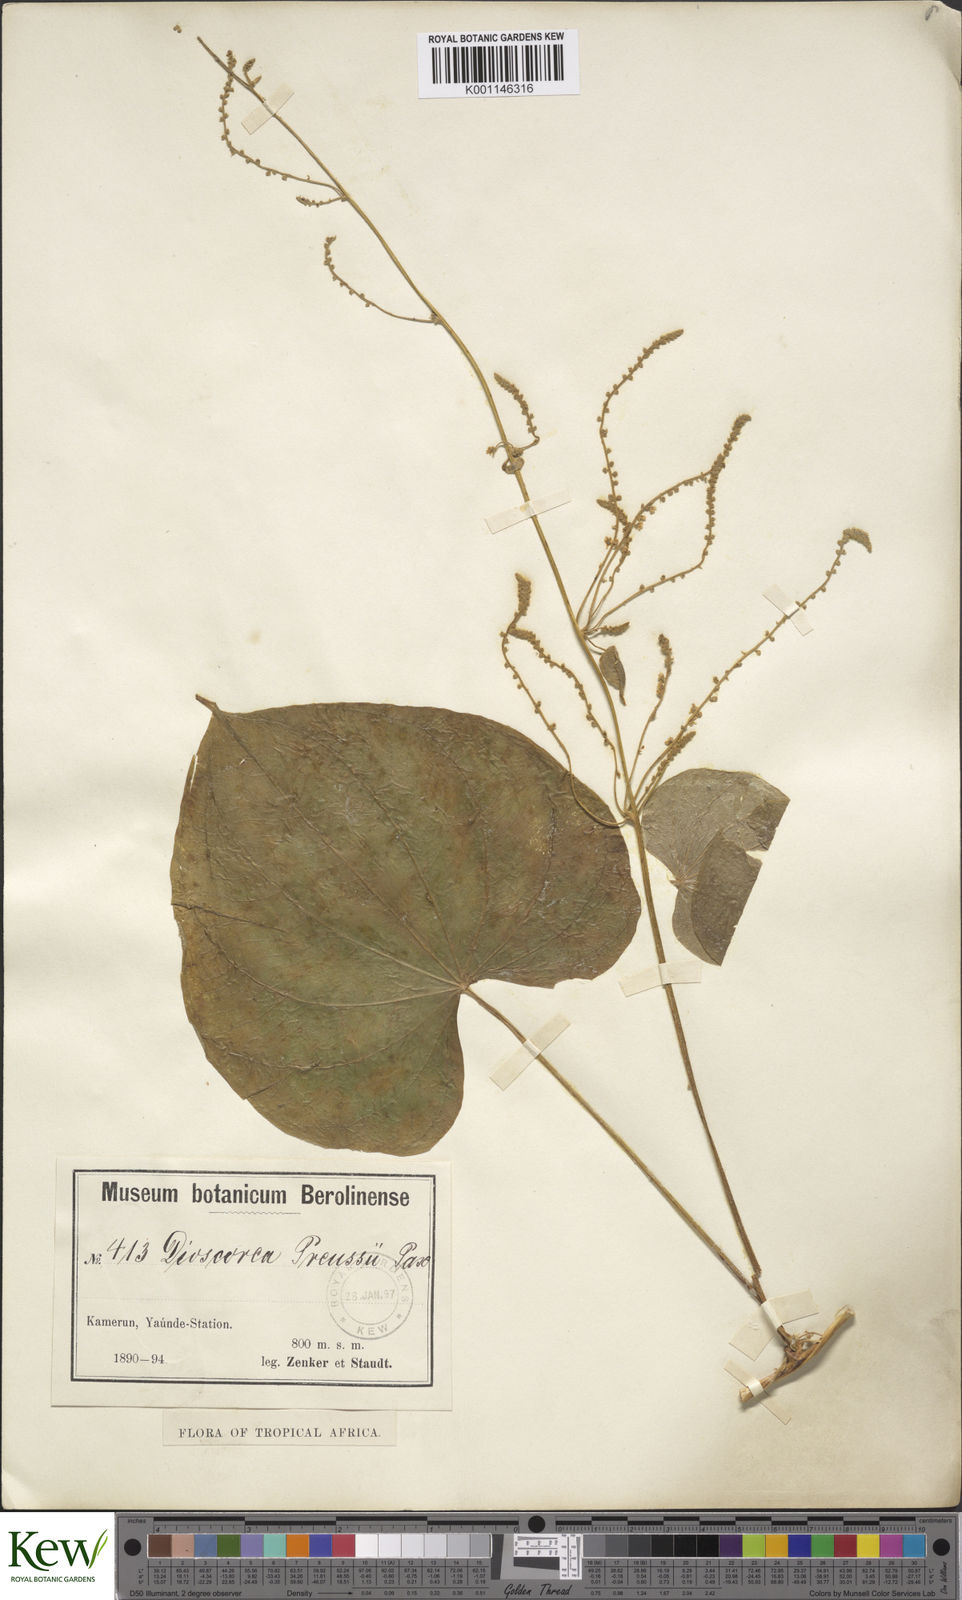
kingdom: Plantae
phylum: Tracheophyta
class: Liliopsida
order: Dioscoreales
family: Dioscoreaceae
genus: Dioscorea
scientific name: Dioscorea preussii
